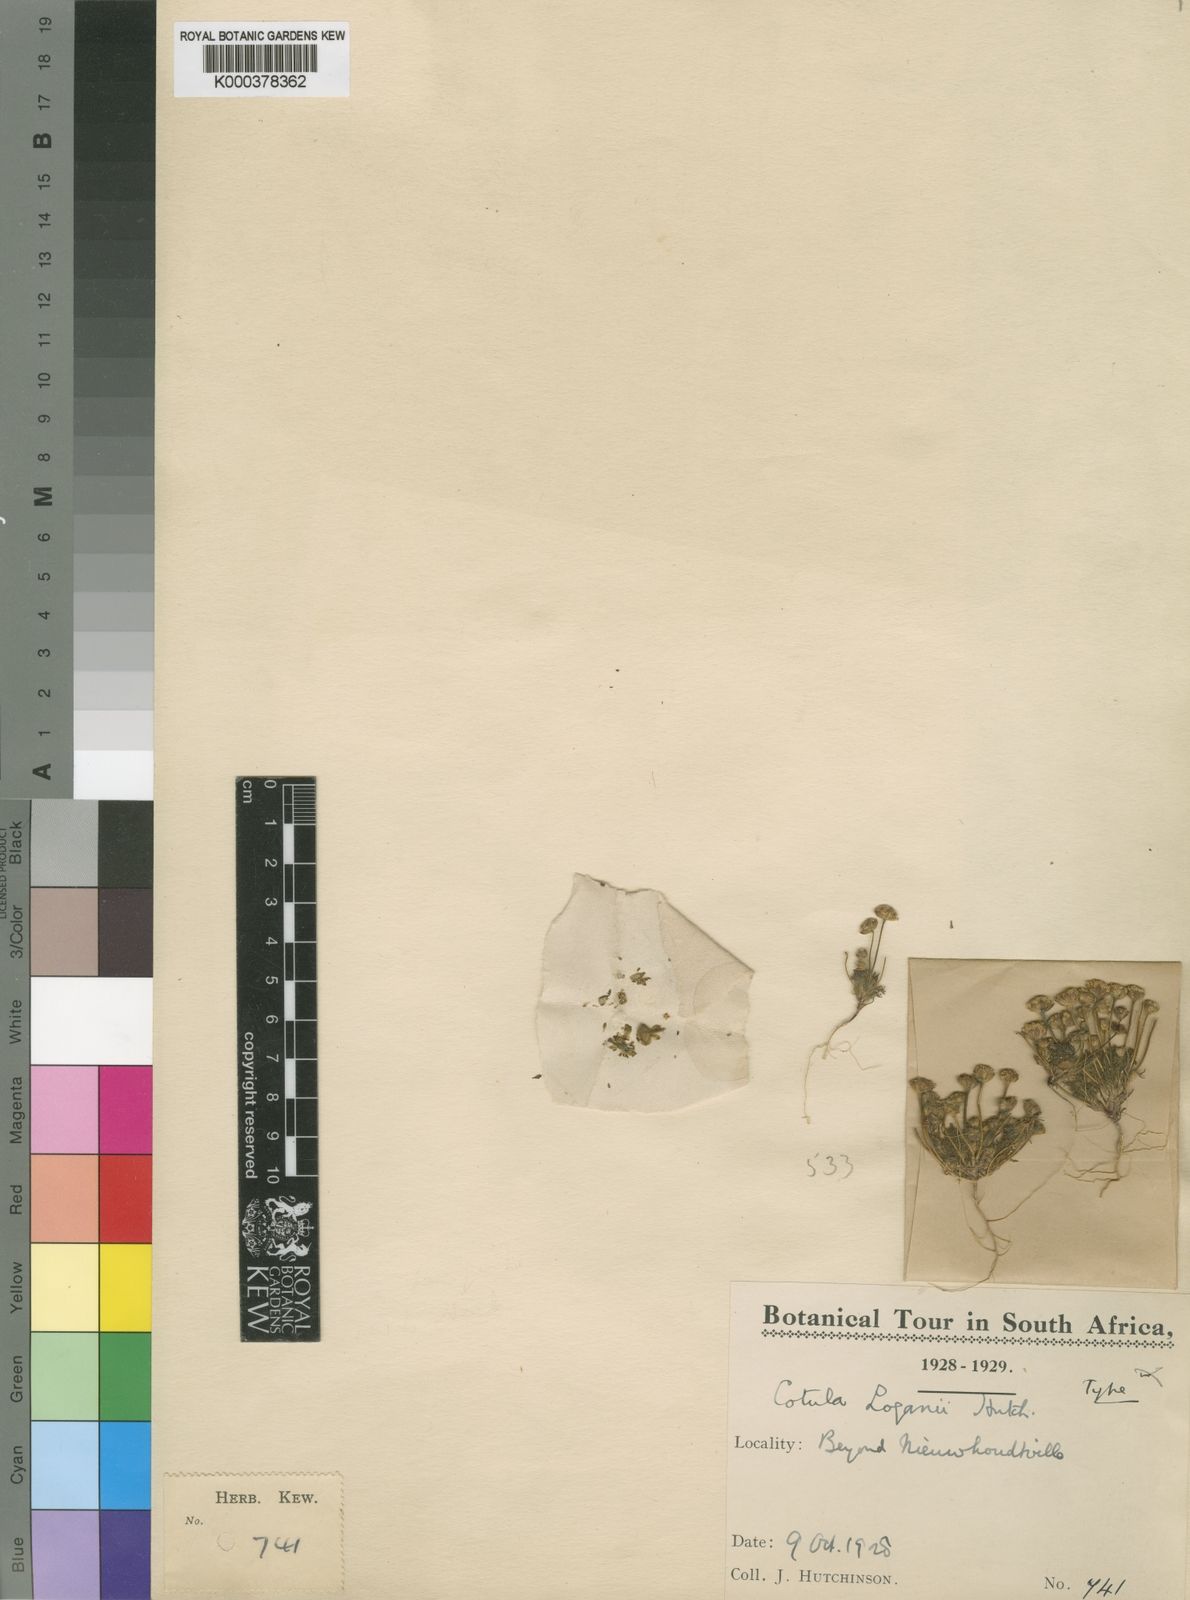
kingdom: Plantae
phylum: Tracheophyta
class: Magnoliopsida
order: Asterales
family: Asteraceae
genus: Cotula
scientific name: Cotula loganii
